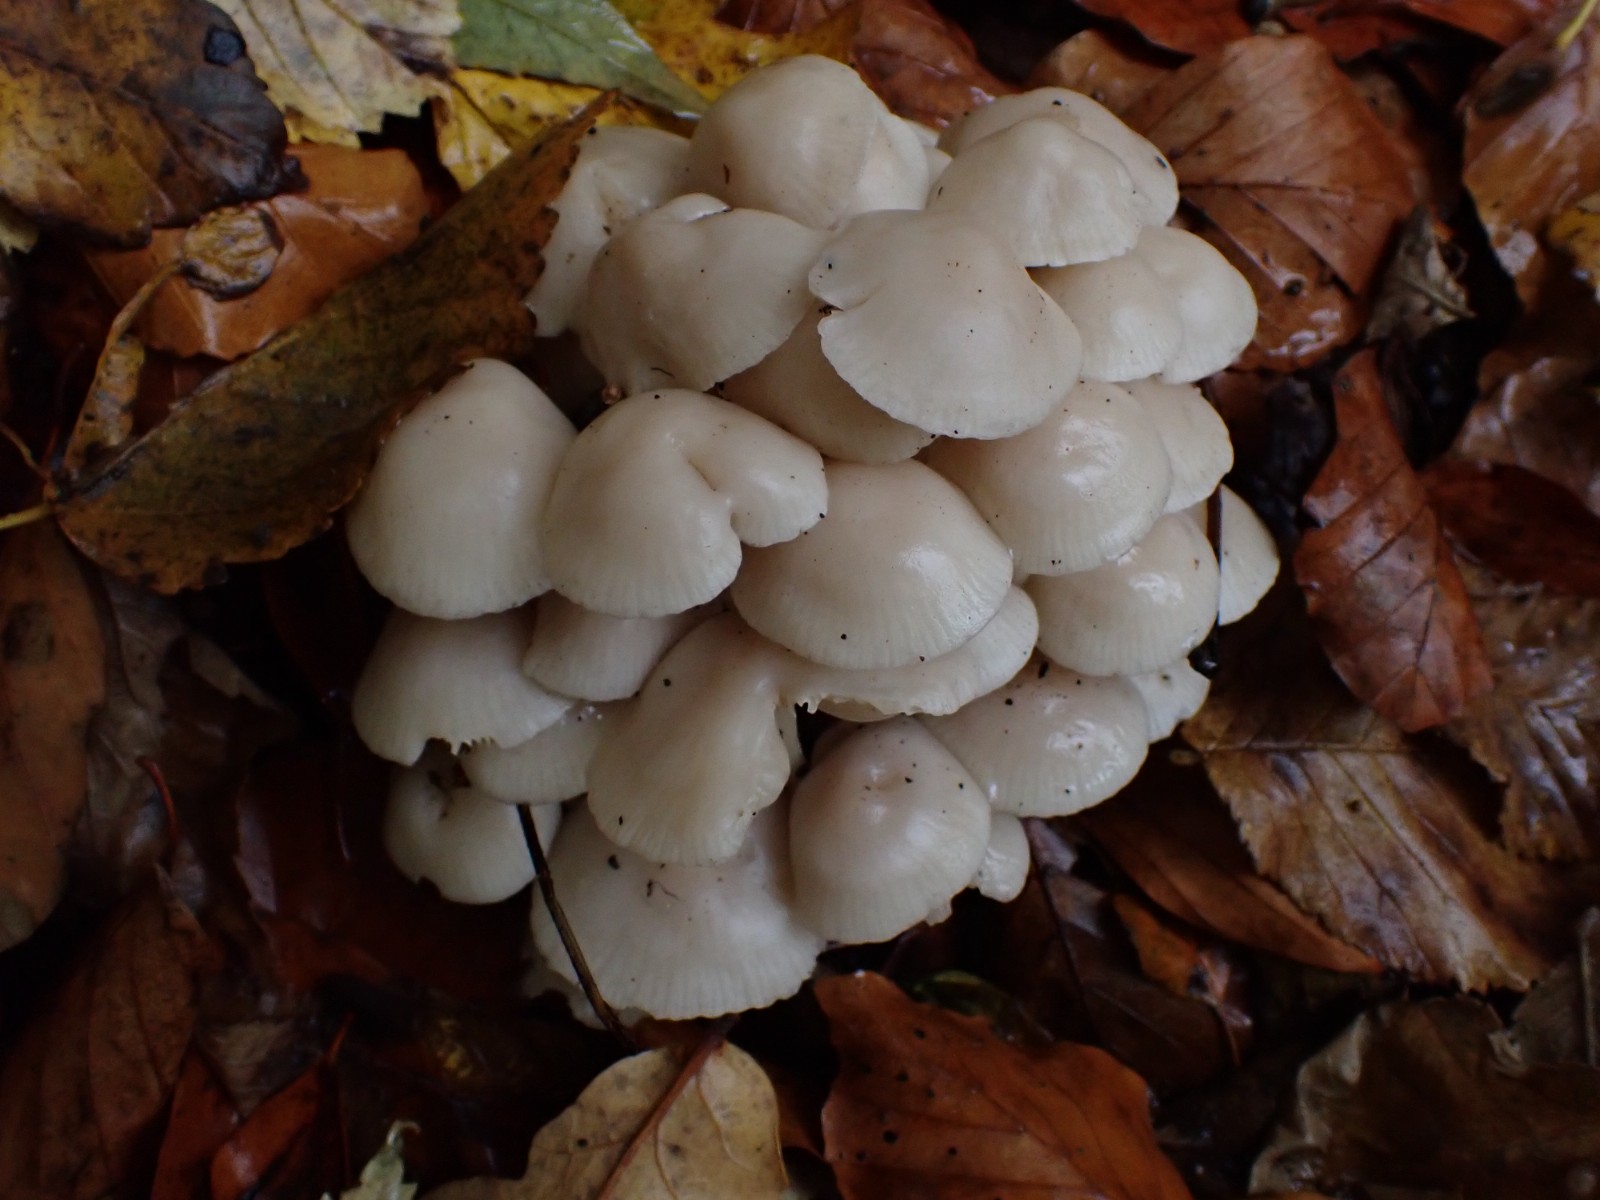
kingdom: Fungi
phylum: Basidiomycota
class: Agaricomycetes
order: Agaricales
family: Marasmiaceae
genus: Marasmius
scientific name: Marasmius wynneae
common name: hvælvet bruskhat
